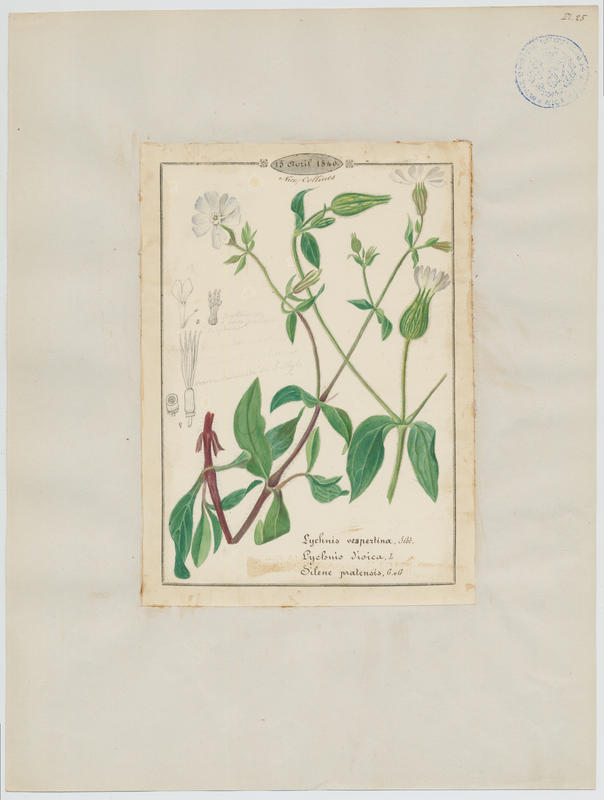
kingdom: Plantae
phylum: Tracheophyta
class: Magnoliopsida
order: Caryophyllales
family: Caryophyllaceae
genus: Silene
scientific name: Silene latifolia
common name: White campion
